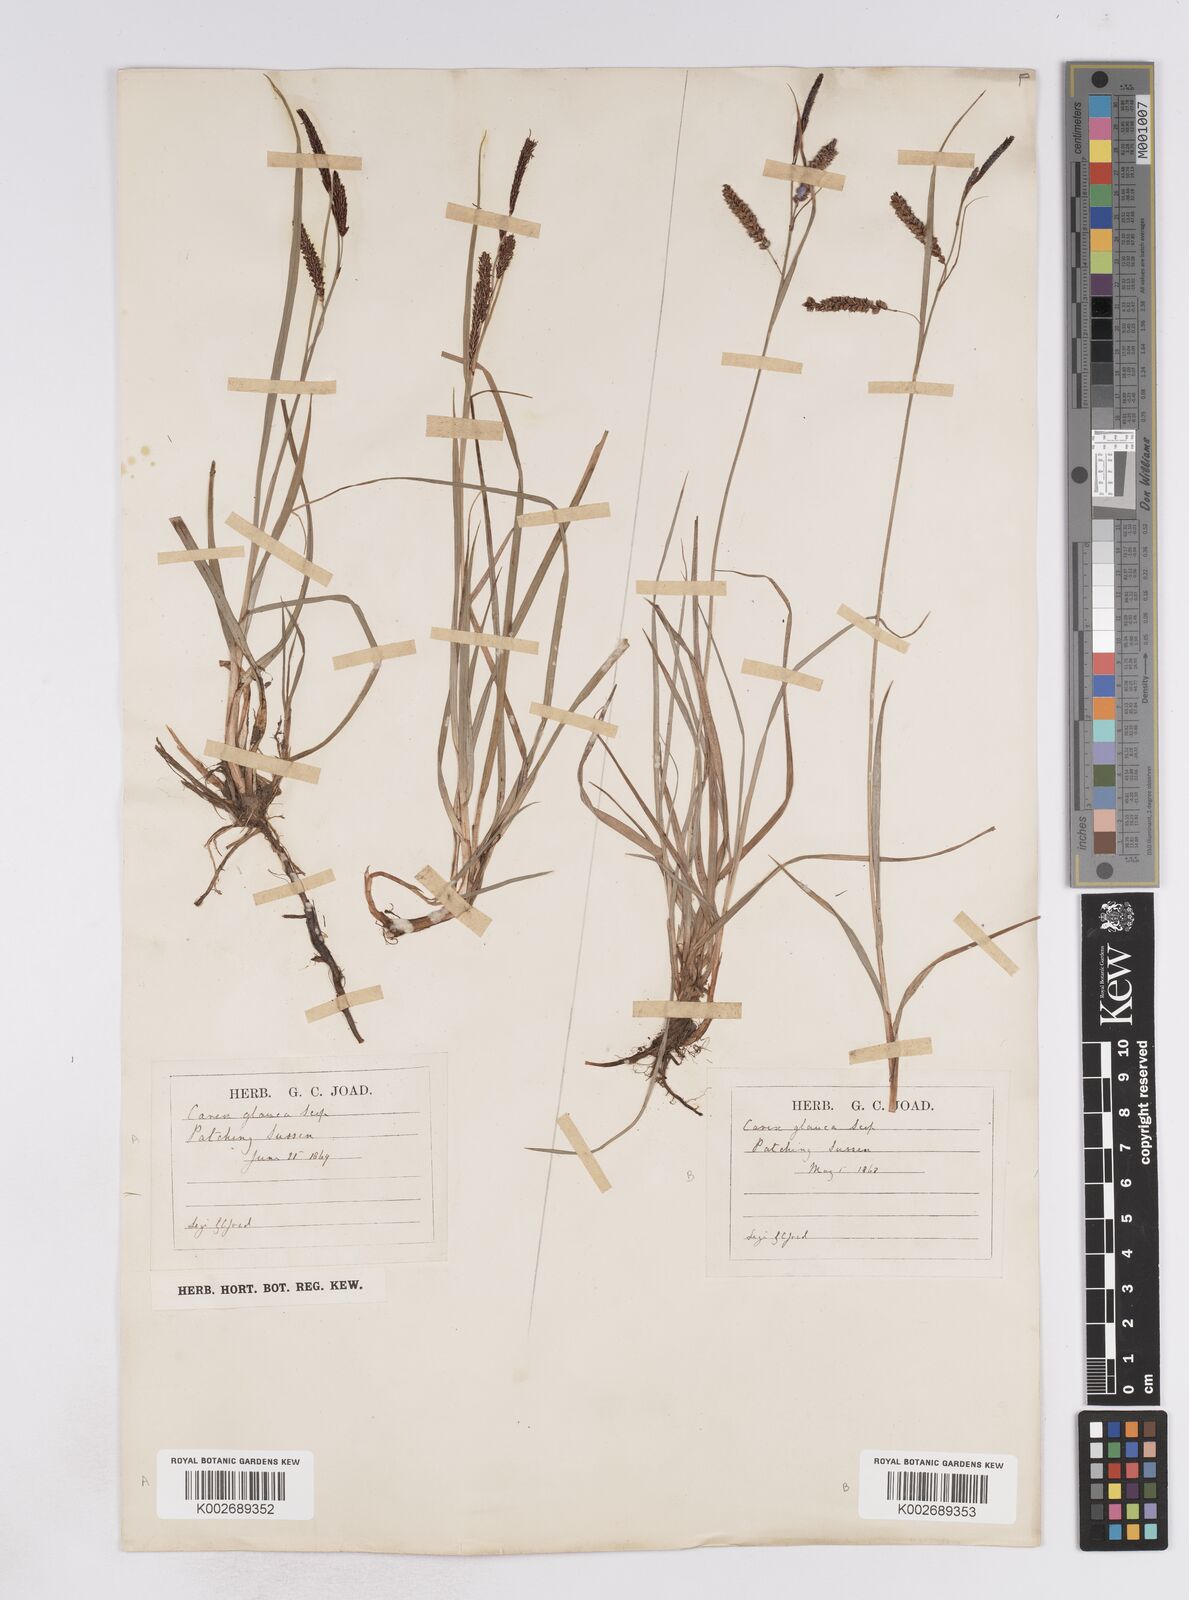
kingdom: Plantae
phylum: Tracheophyta
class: Liliopsida
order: Poales
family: Cyperaceae
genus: Carex
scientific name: Carex flacca
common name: Glaucous sedge
